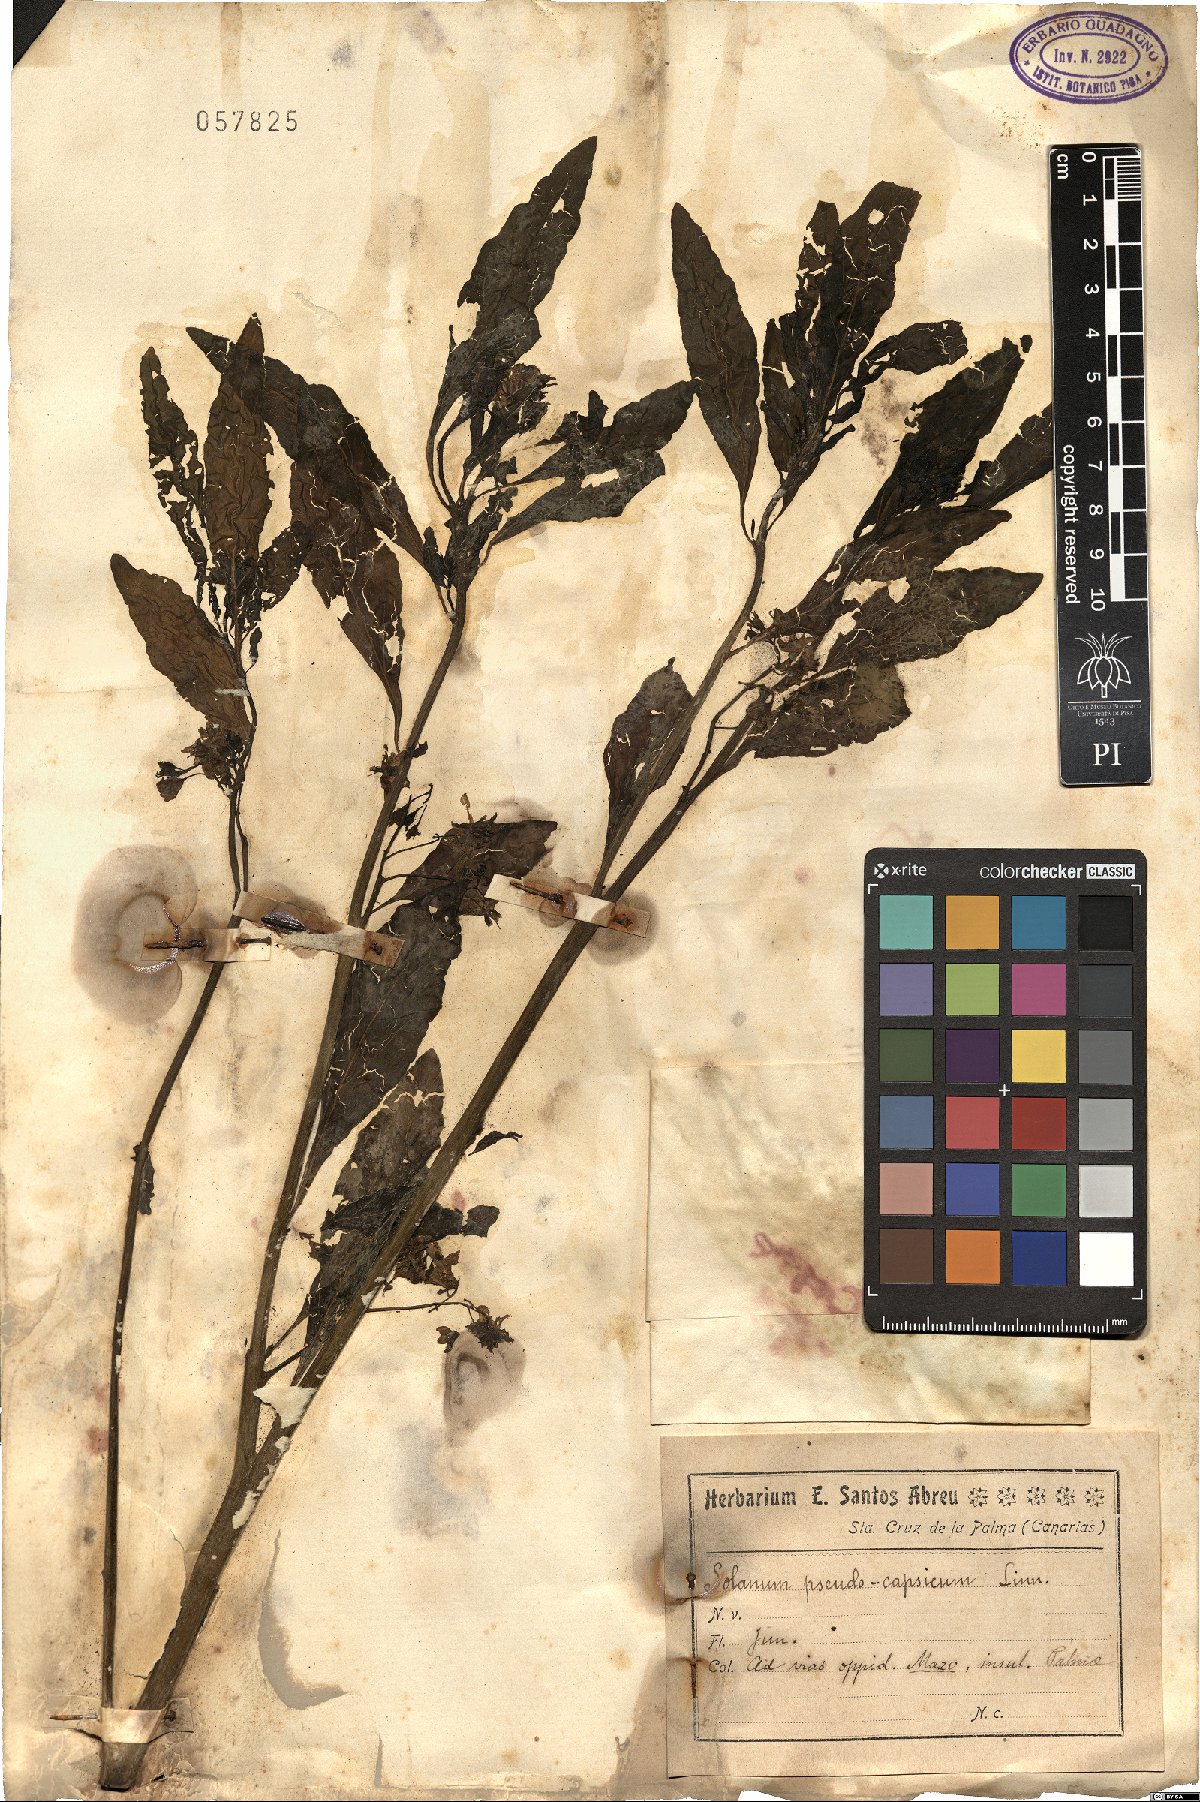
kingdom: Plantae
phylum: Tracheophyta
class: Magnoliopsida
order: Solanales
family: Solanaceae
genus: Solanum
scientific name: Solanum pseudocapsicum
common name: Jerusalem cherry
